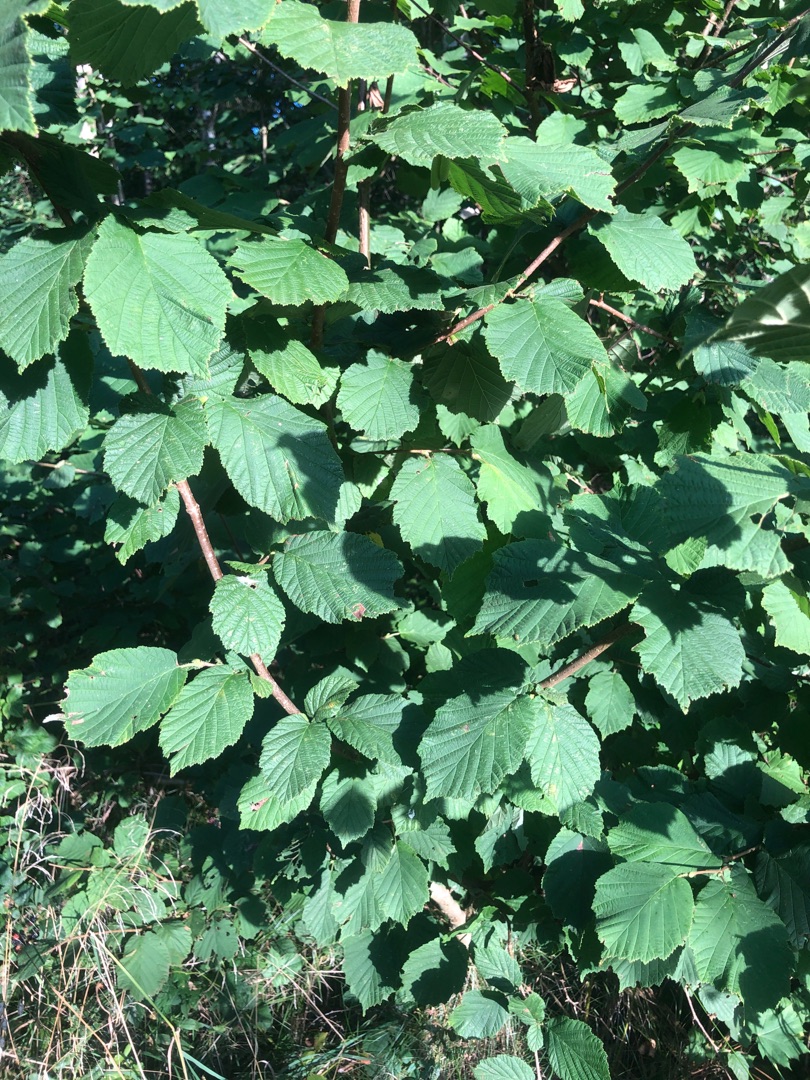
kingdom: Plantae
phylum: Tracheophyta
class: Magnoliopsida
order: Fagales
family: Betulaceae
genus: Corylus
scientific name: Corylus avellana
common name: Hassel
